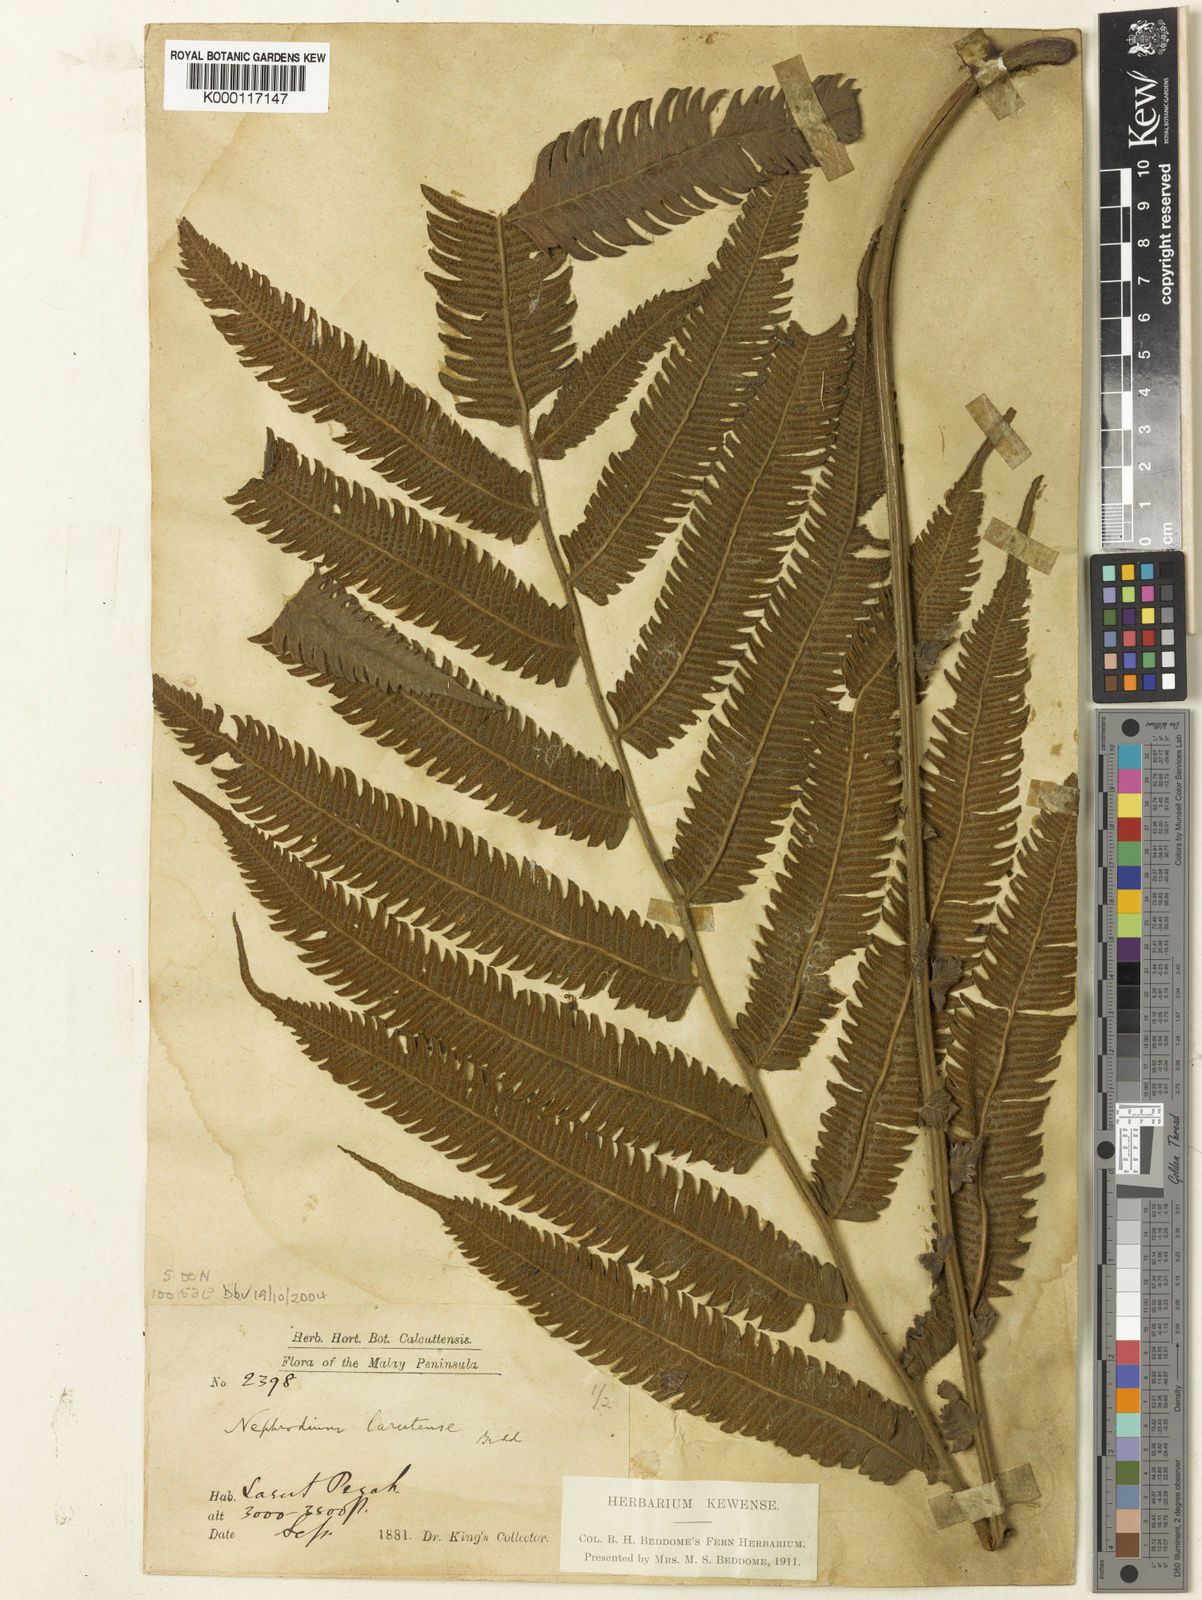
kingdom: Plantae
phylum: Tracheophyta
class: Polypodiopsida
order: Polypodiales
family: Thelypteridaceae
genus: Sphaerostephanos
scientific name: Sphaerostephanos larutensis
